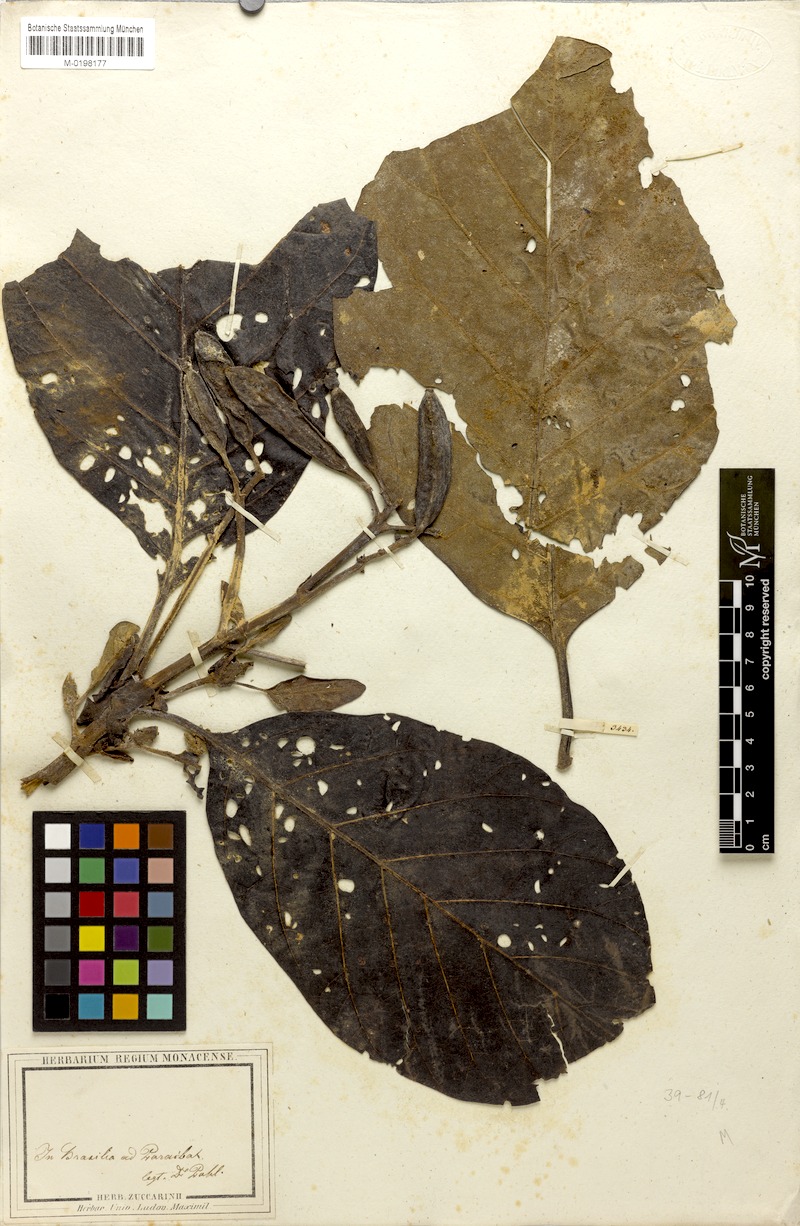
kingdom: Plantae
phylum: Tracheophyta
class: Magnoliopsida
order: Gentianales
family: Rubiaceae
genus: Ladenbergia
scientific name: Ladenbergia
